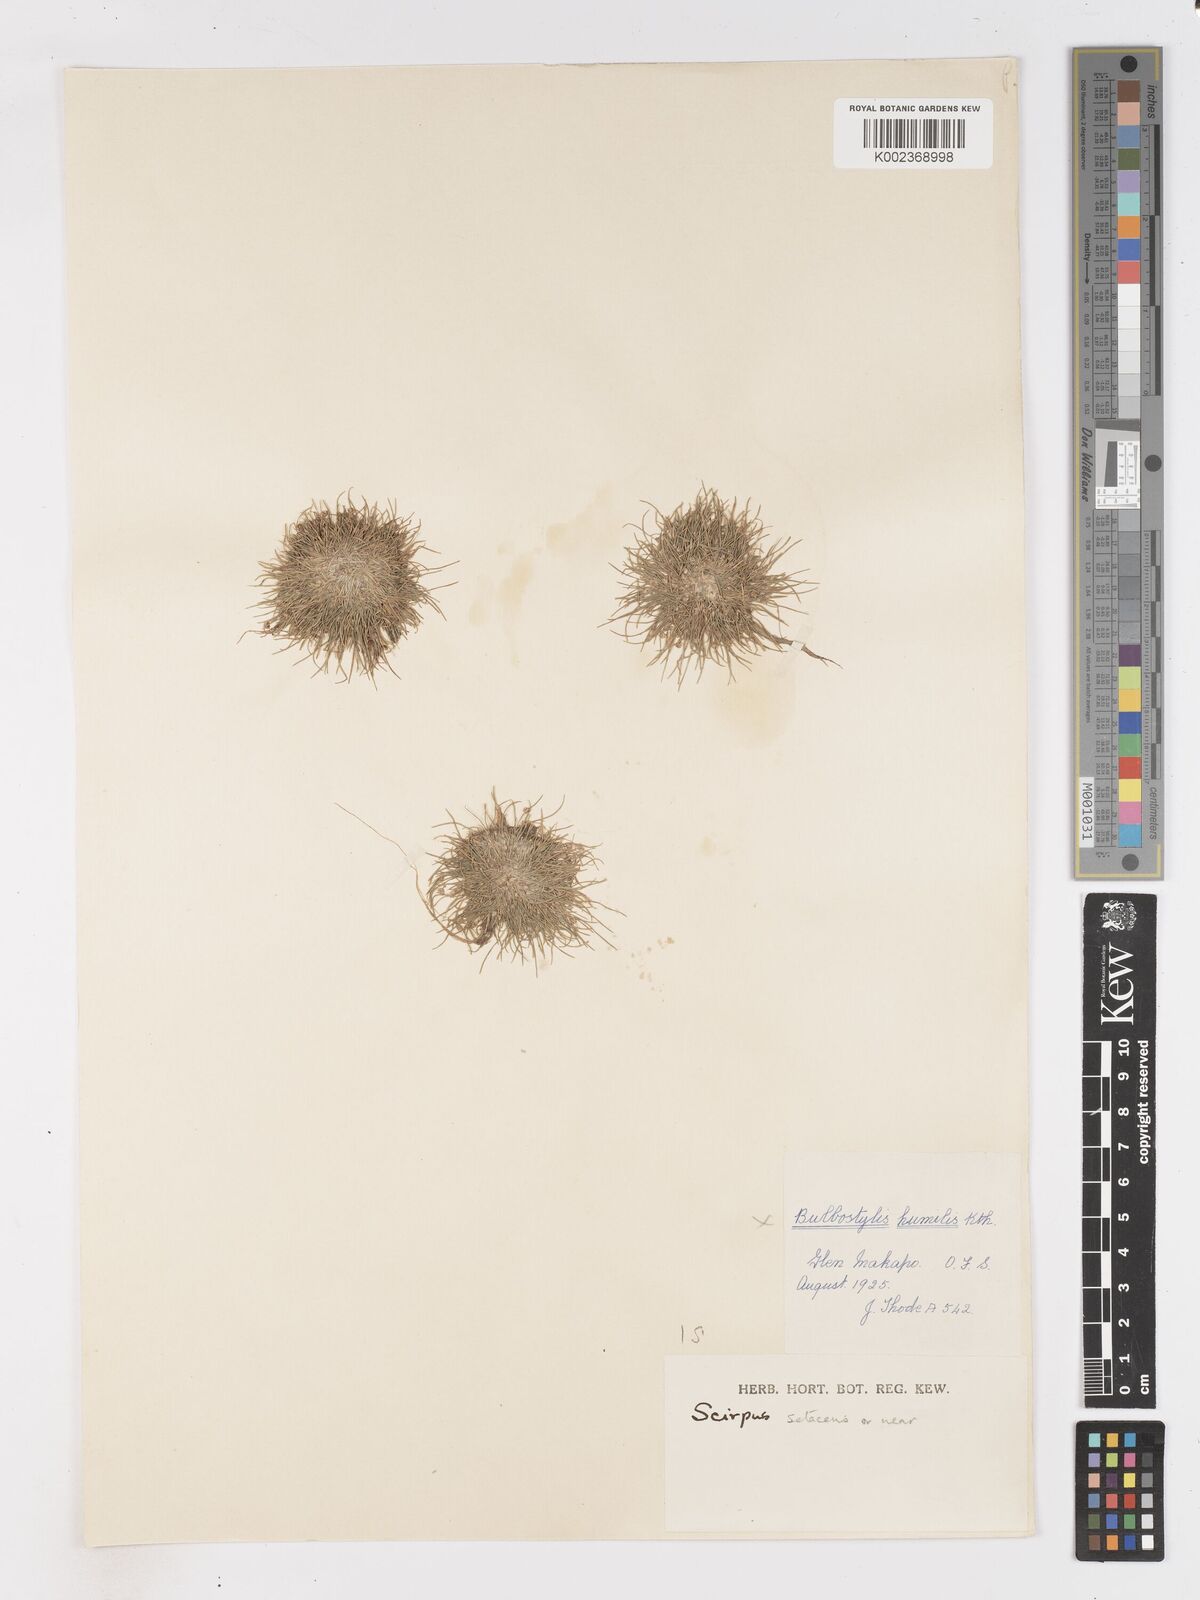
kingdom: Plantae
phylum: Tracheophyta
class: Liliopsida
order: Poales
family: Cyperaceae
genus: Isolepis
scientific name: Isolepis setacea
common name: Bristle club-rush
